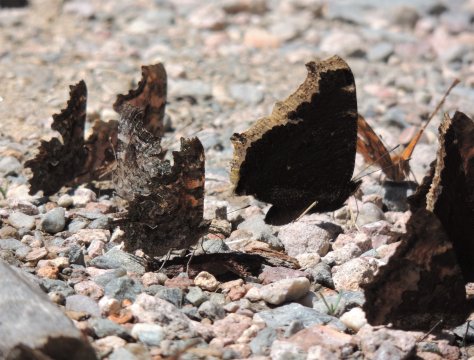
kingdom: Animalia
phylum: Arthropoda
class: Insecta
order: Lepidoptera
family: Nymphalidae
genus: Nymphalis
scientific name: Nymphalis antiopa
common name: Mourning Cloak
